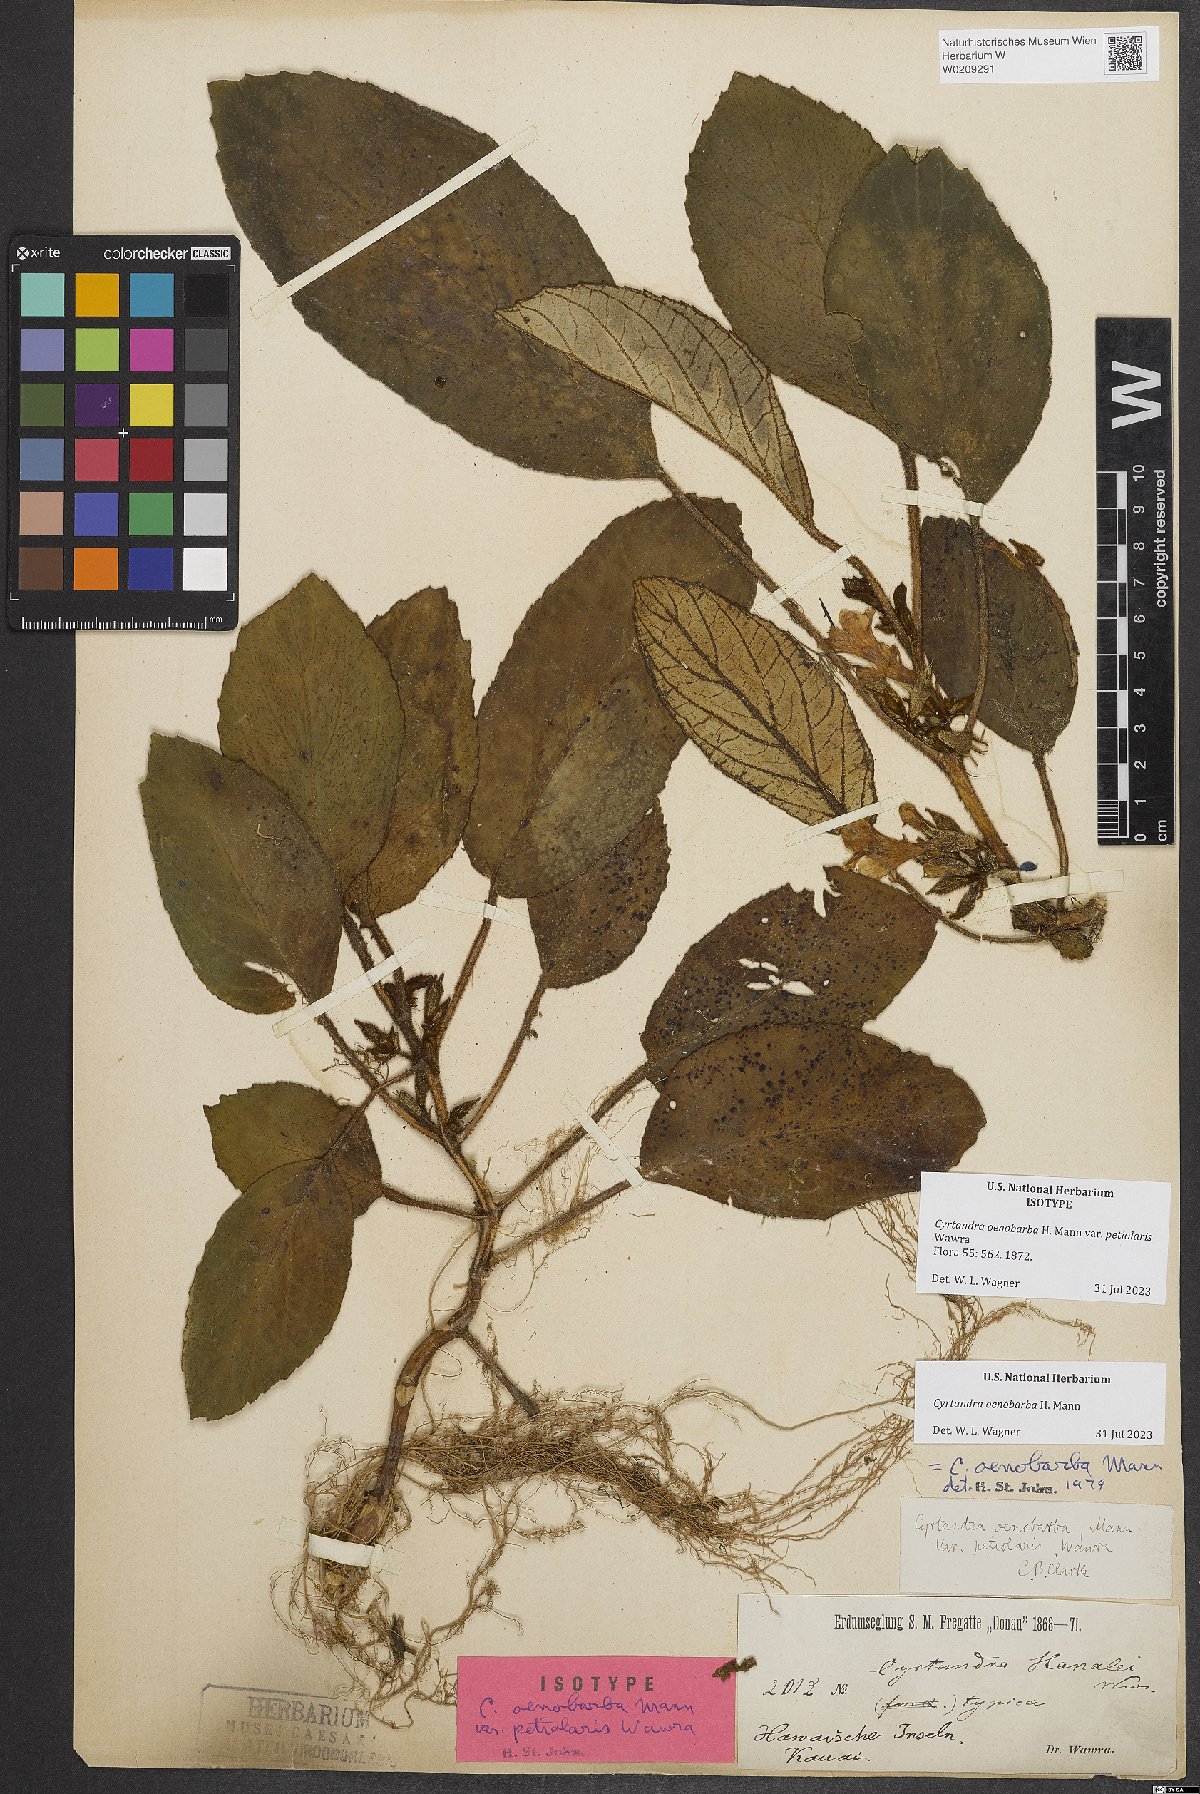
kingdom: Plantae
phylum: Tracheophyta
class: Magnoliopsida
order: Lamiales
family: Gesneriaceae
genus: Cyrtandra
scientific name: Cyrtandra oenobarba
